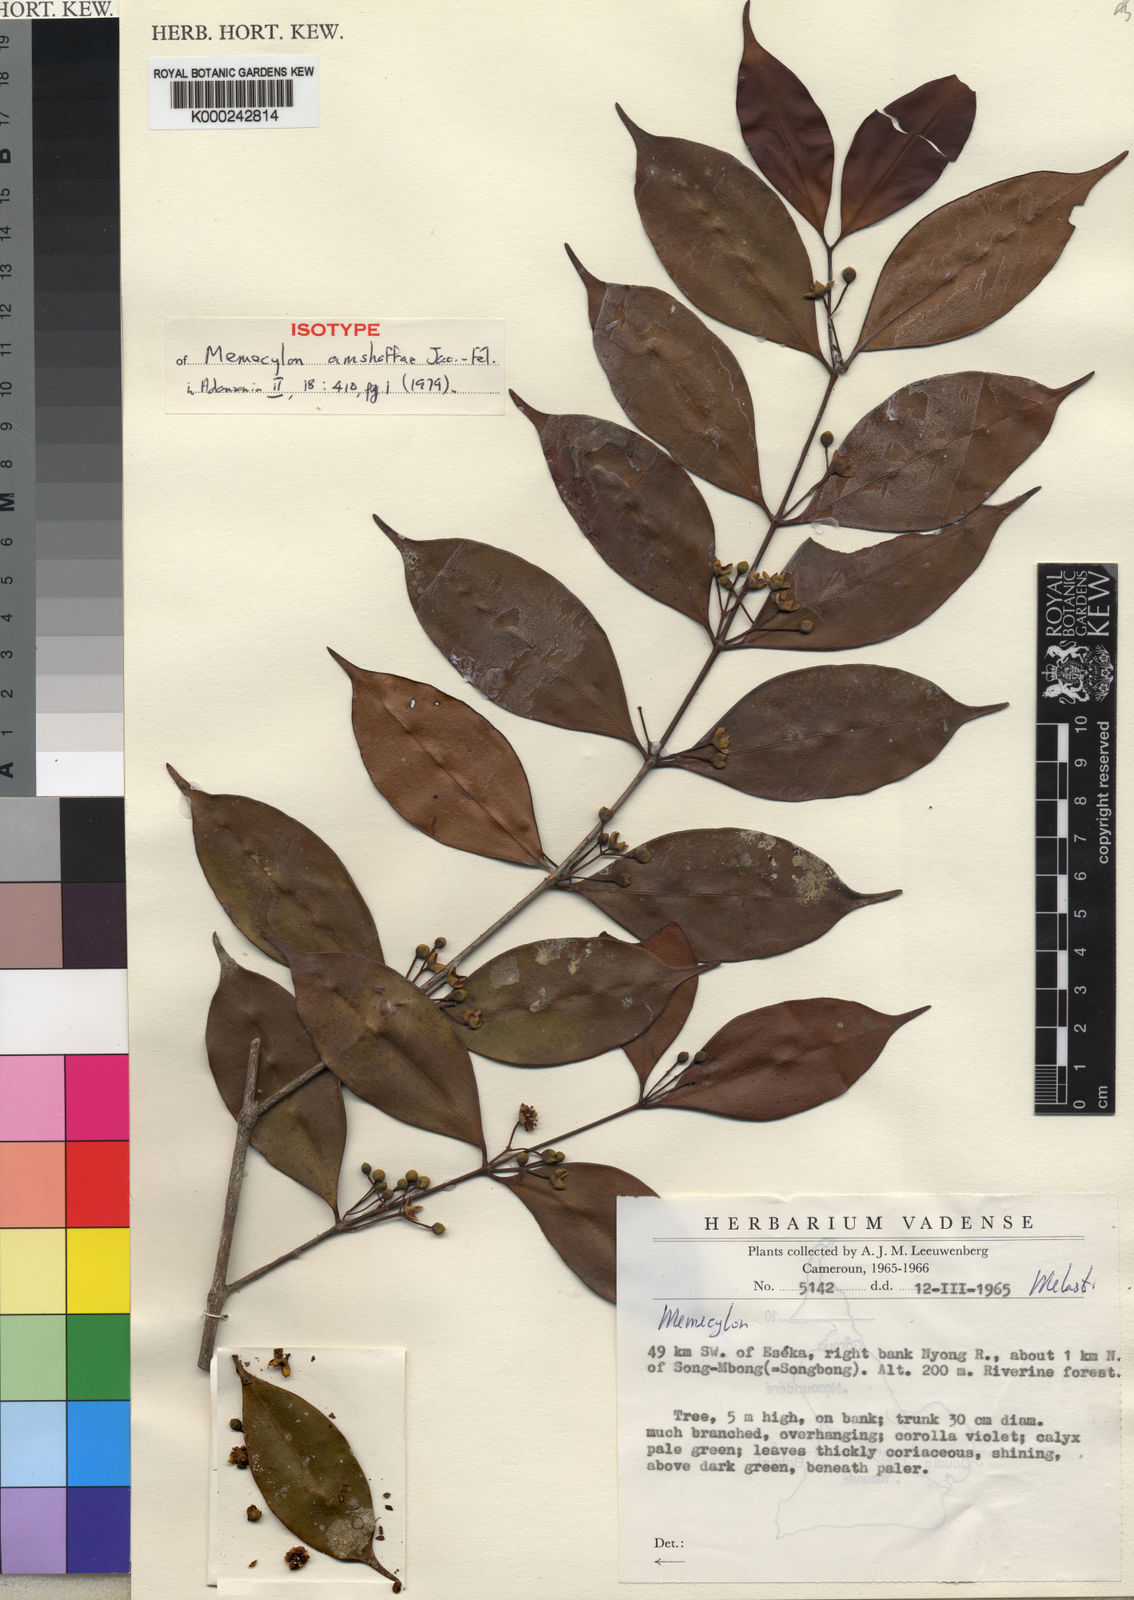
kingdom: Plantae
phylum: Tracheophyta
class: Magnoliopsida
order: Myrtales
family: Melastomataceae
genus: Memecylon
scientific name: Memecylon amshoffiae
